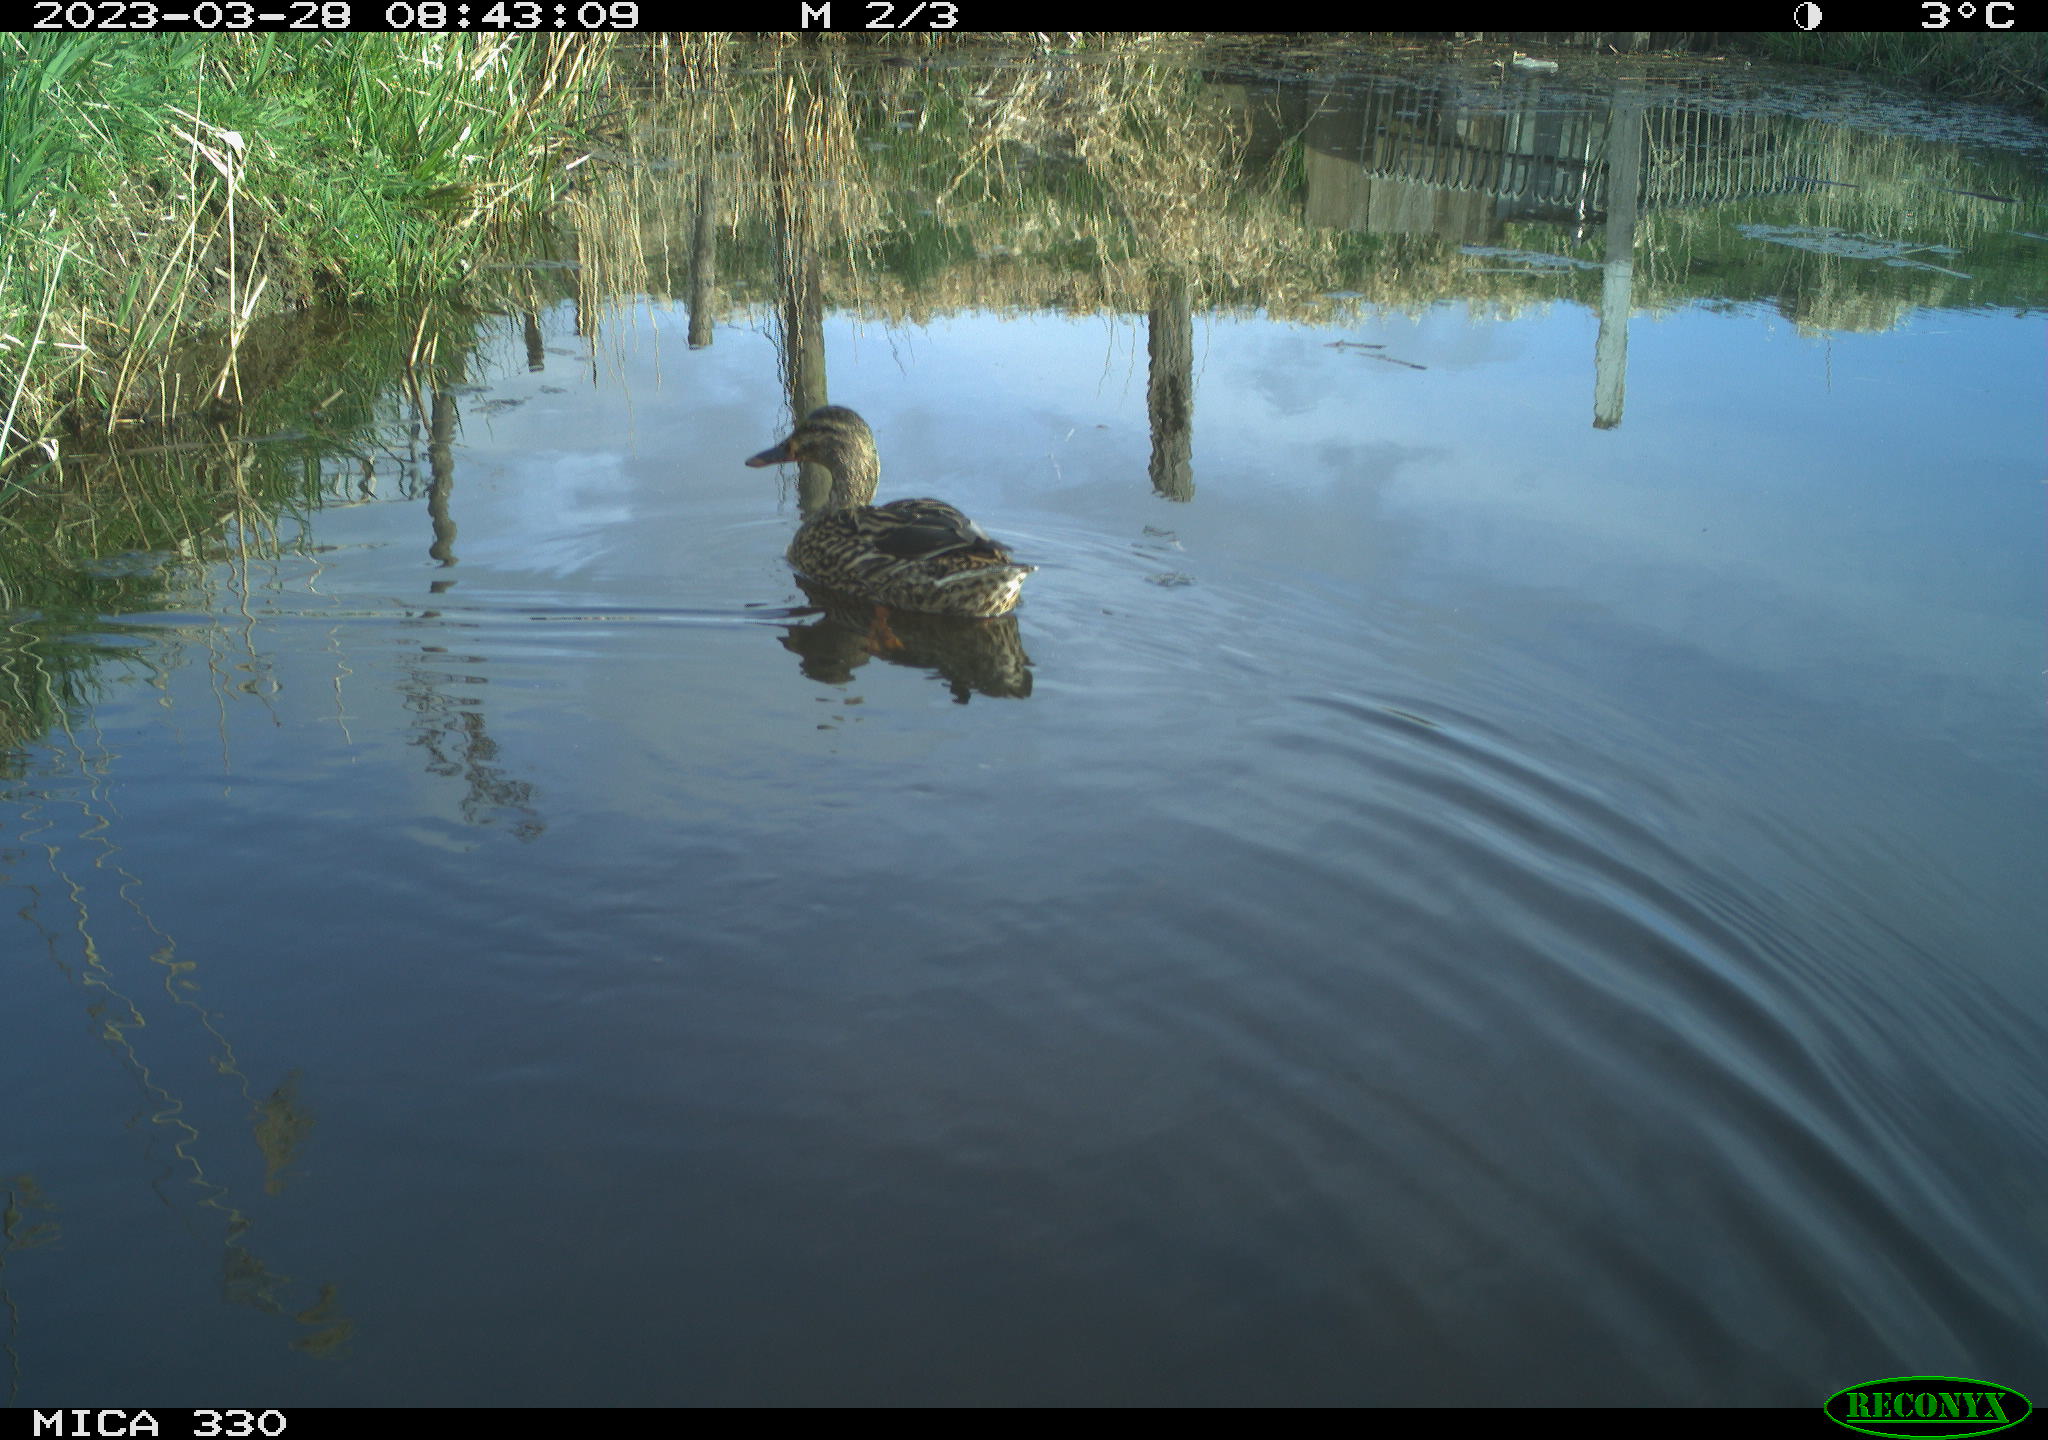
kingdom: Animalia
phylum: Chordata
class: Aves
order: Anseriformes
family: Anatidae
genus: Anas
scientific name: Anas
